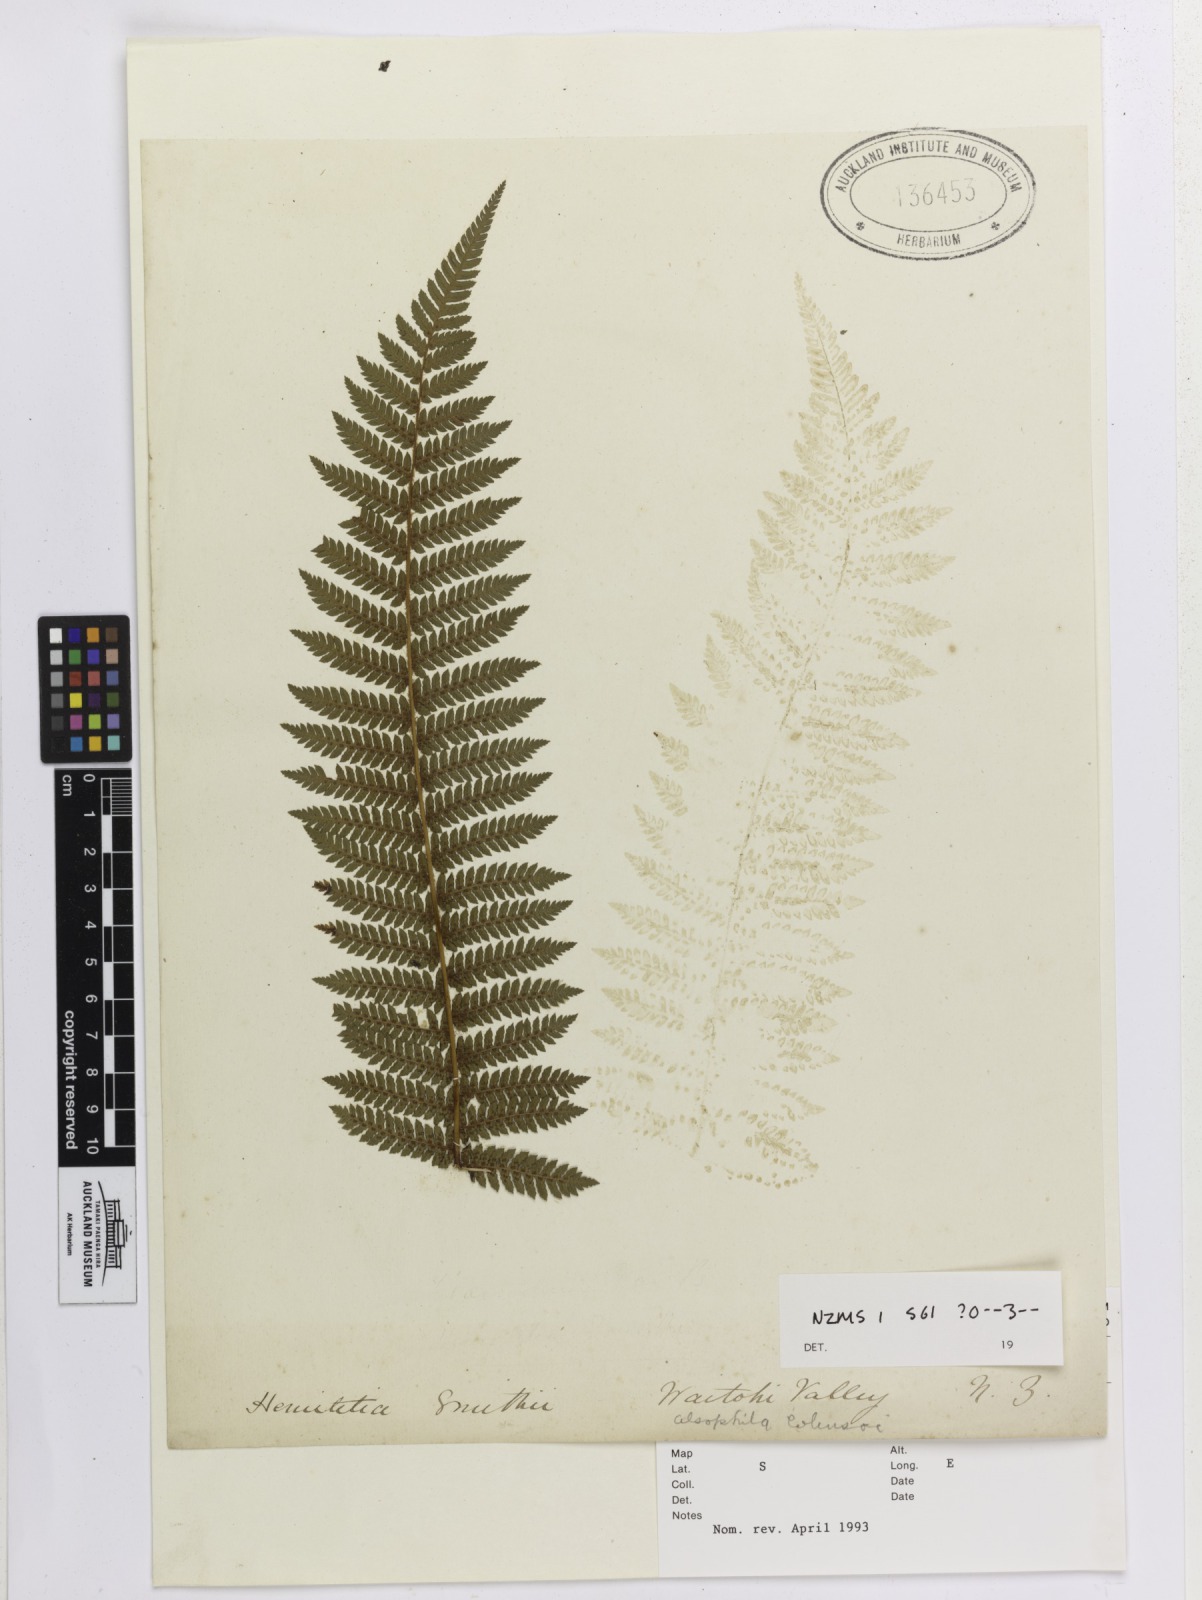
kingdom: Plantae
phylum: Tracheophyta
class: Polypodiopsida
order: Cyatheales
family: Cyatheaceae
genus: Alsophila
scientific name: Alsophila smithii
